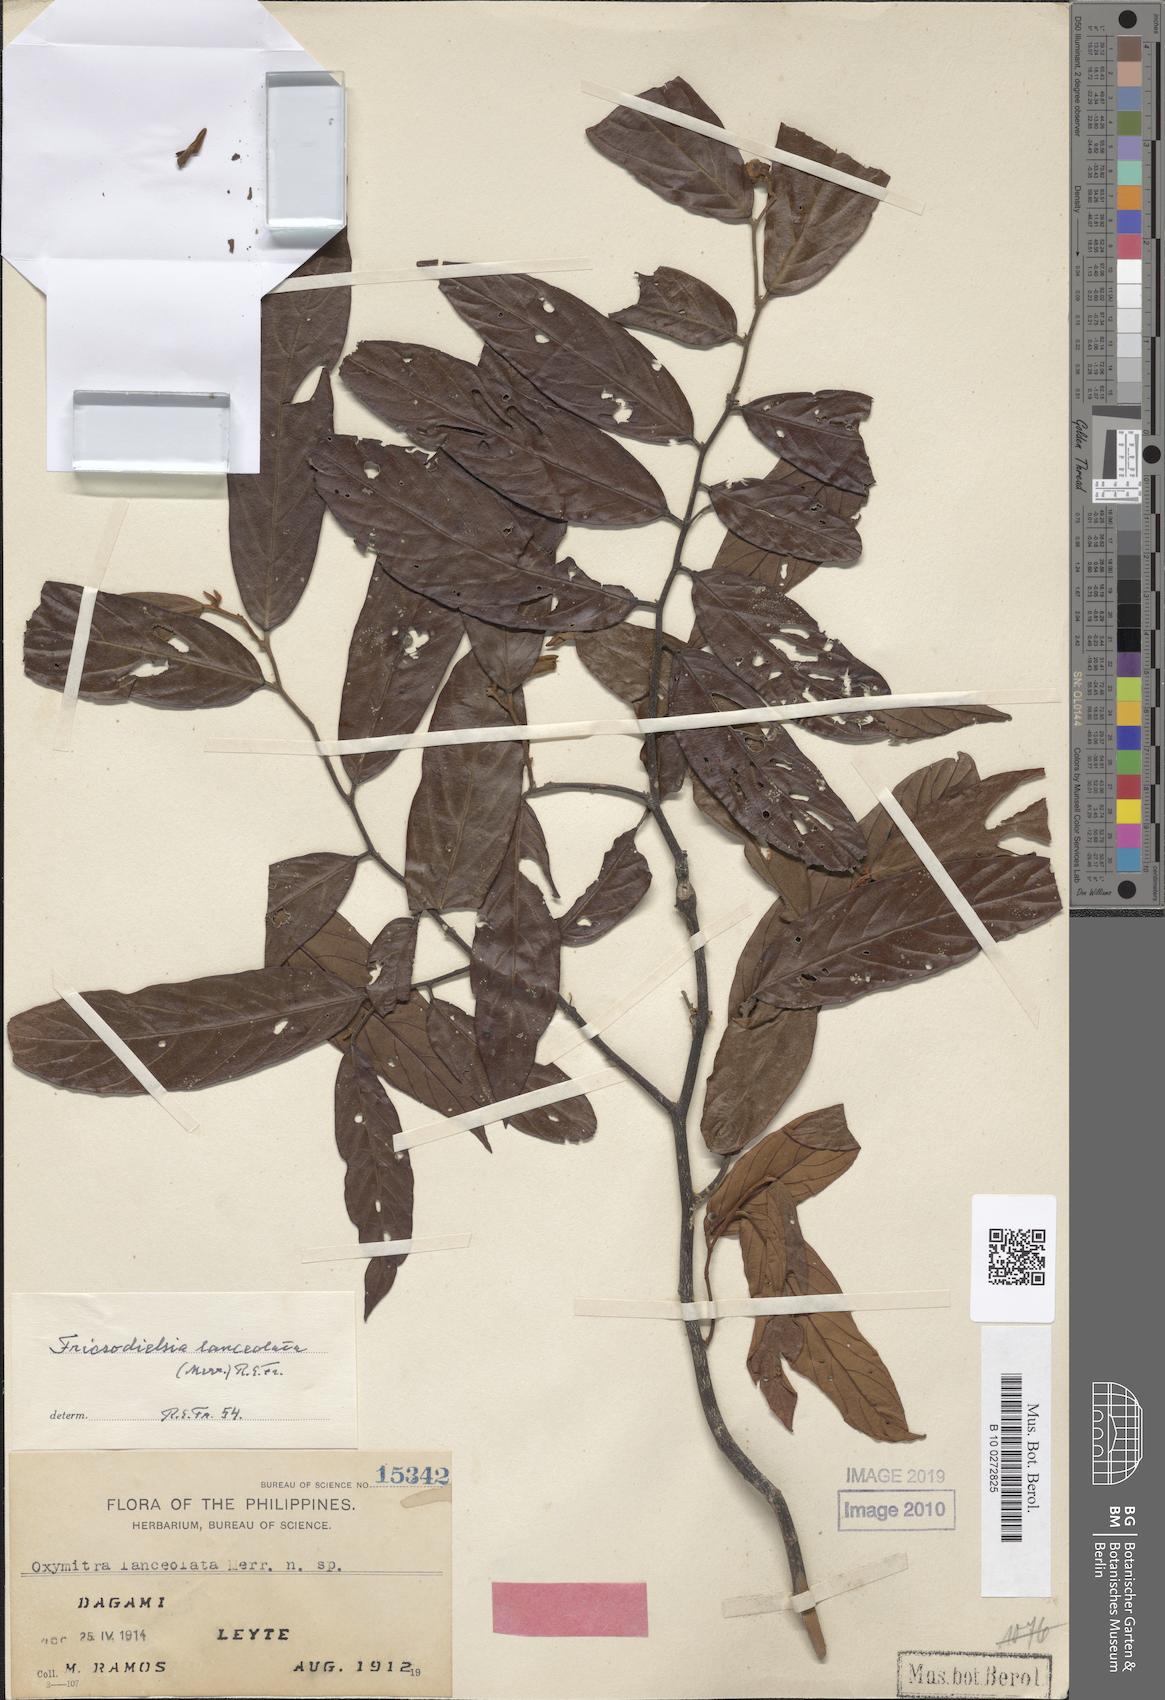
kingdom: Plantae
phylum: Tracheophyta
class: Magnoliopsida
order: Magnoliales
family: Annonaceae
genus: Friesodielsia
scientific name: Friesodielsia lanceolata
